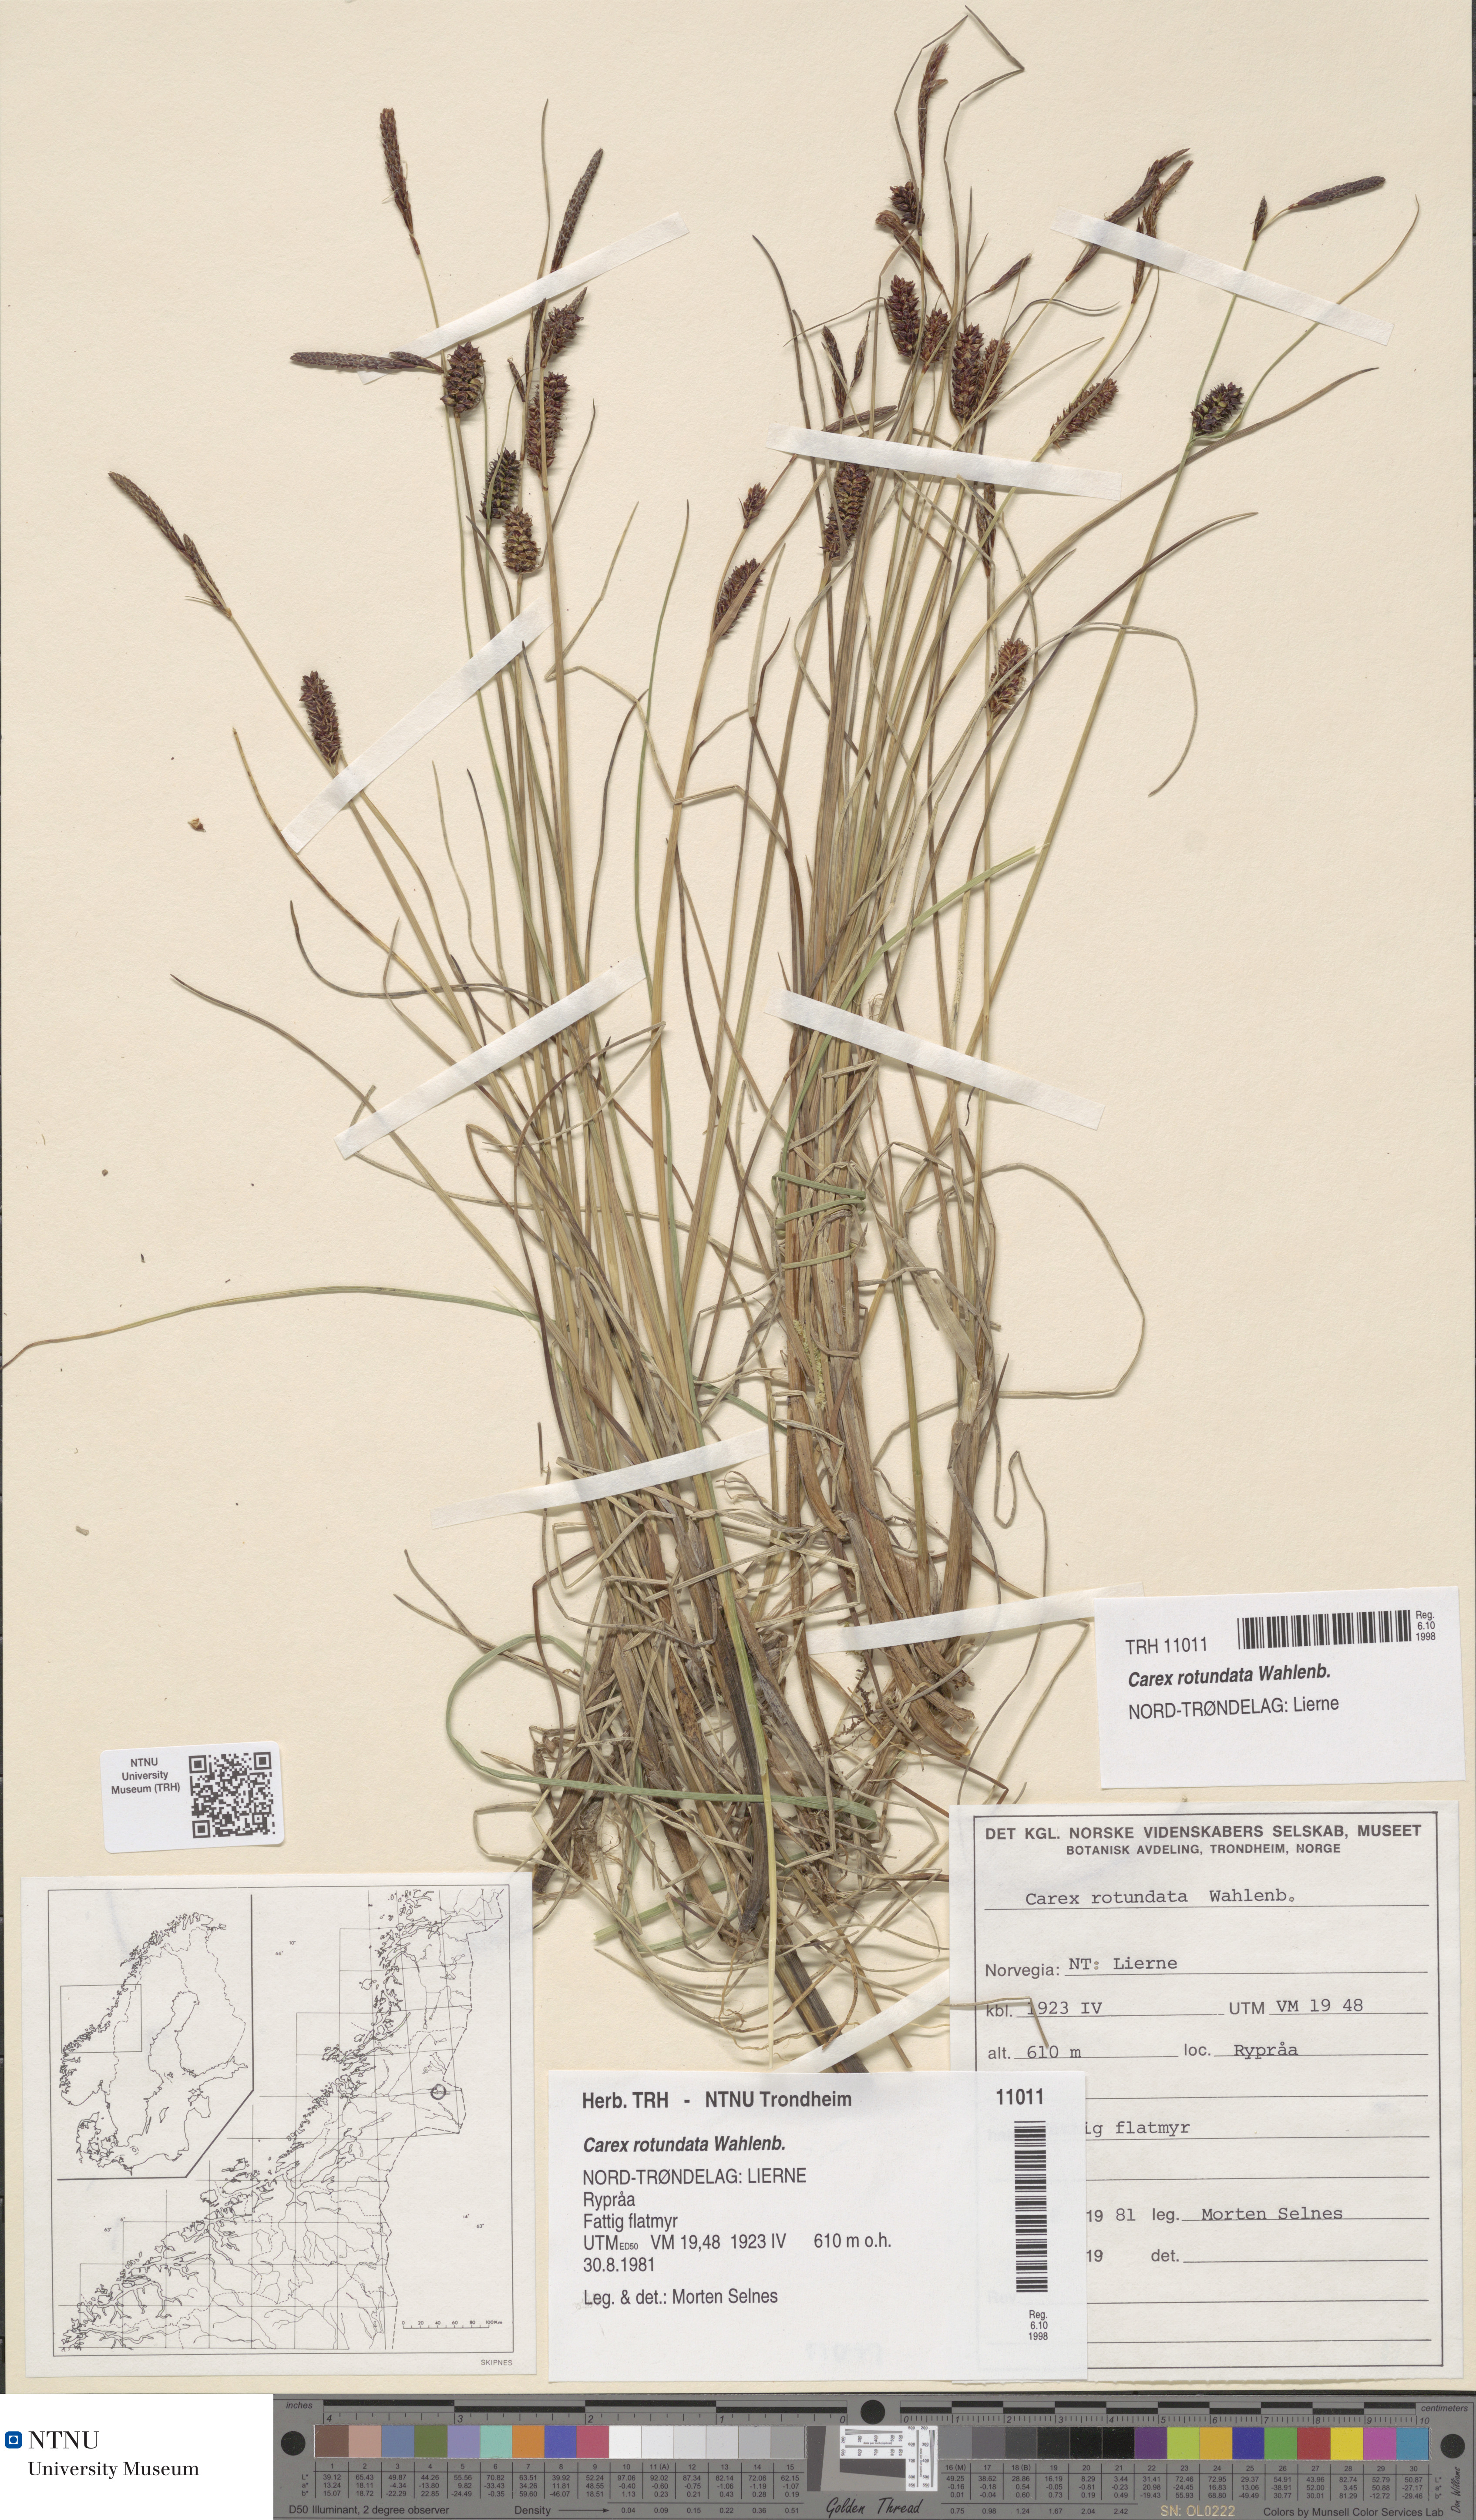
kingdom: Plantae
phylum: Tracheophyta
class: Liliopsida
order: Poales
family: Cyperaceae
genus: Carex
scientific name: Carex rotundata
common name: Round-fruited sedge
